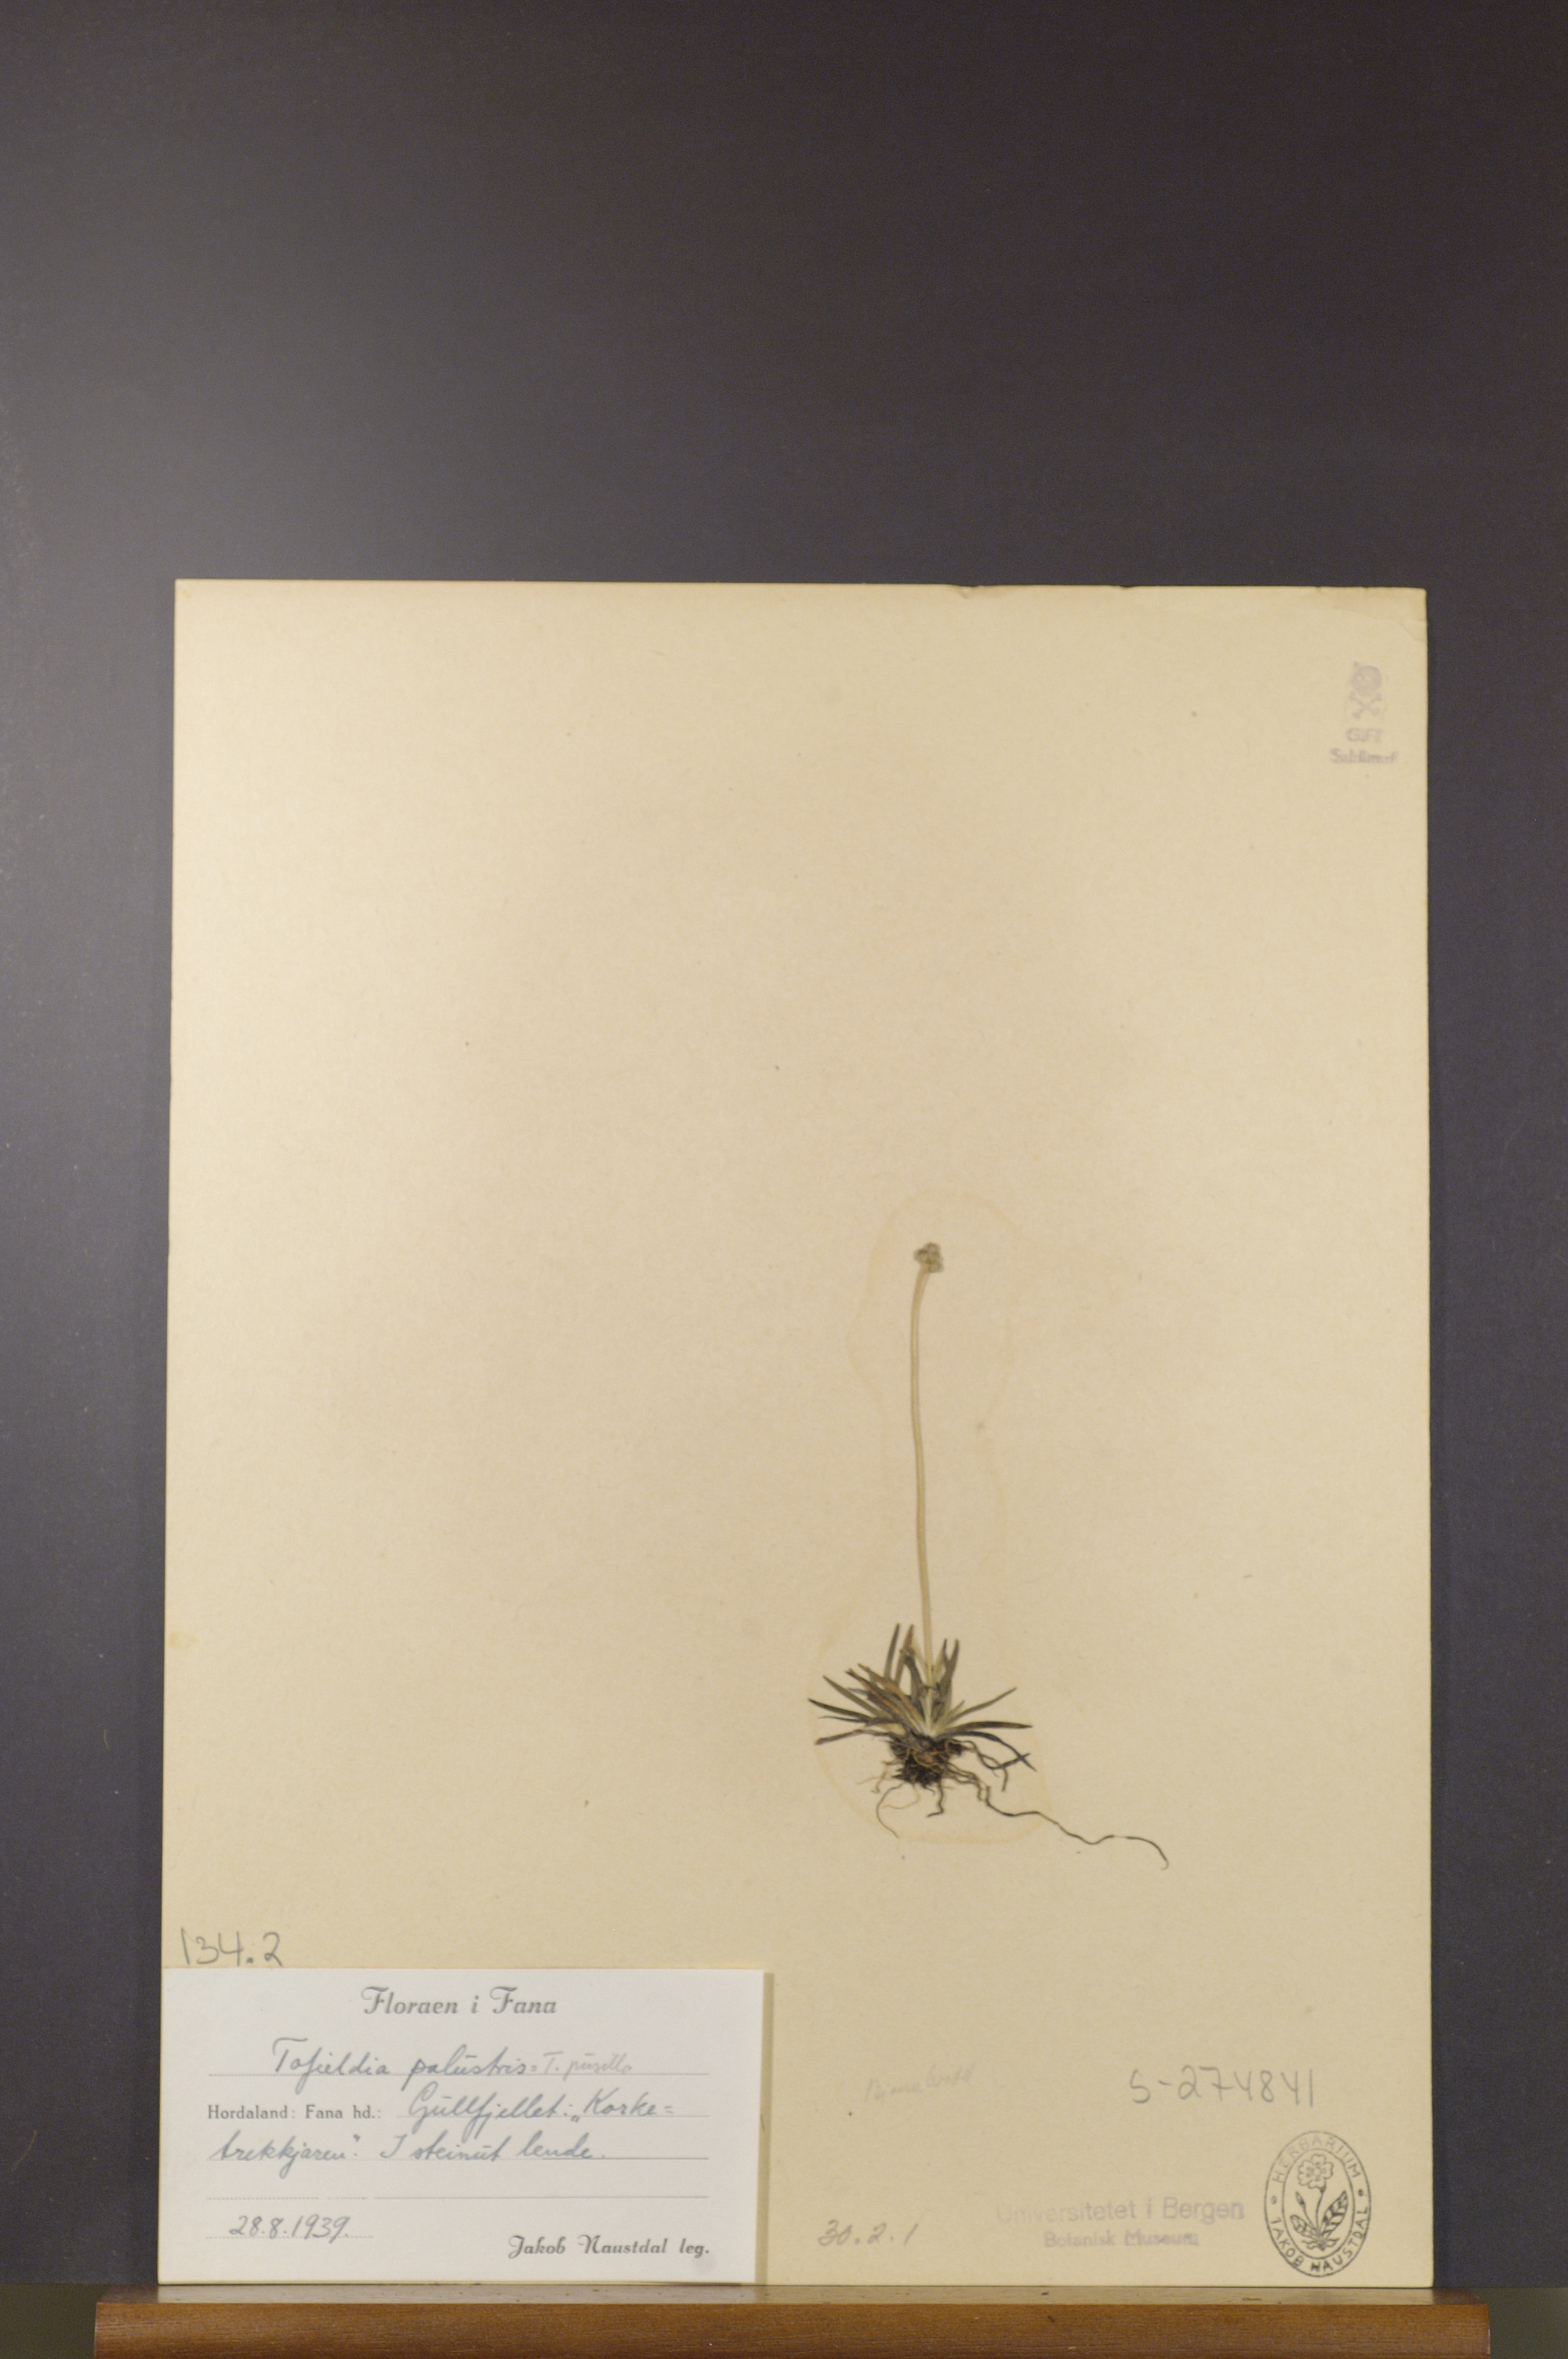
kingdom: Plantae
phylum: Tracheophyta
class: Liliopsida
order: Alismatales
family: Tofieldiaceae
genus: Tofieldia
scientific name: Tofieldia pusilla
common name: Scottish false asphodel
